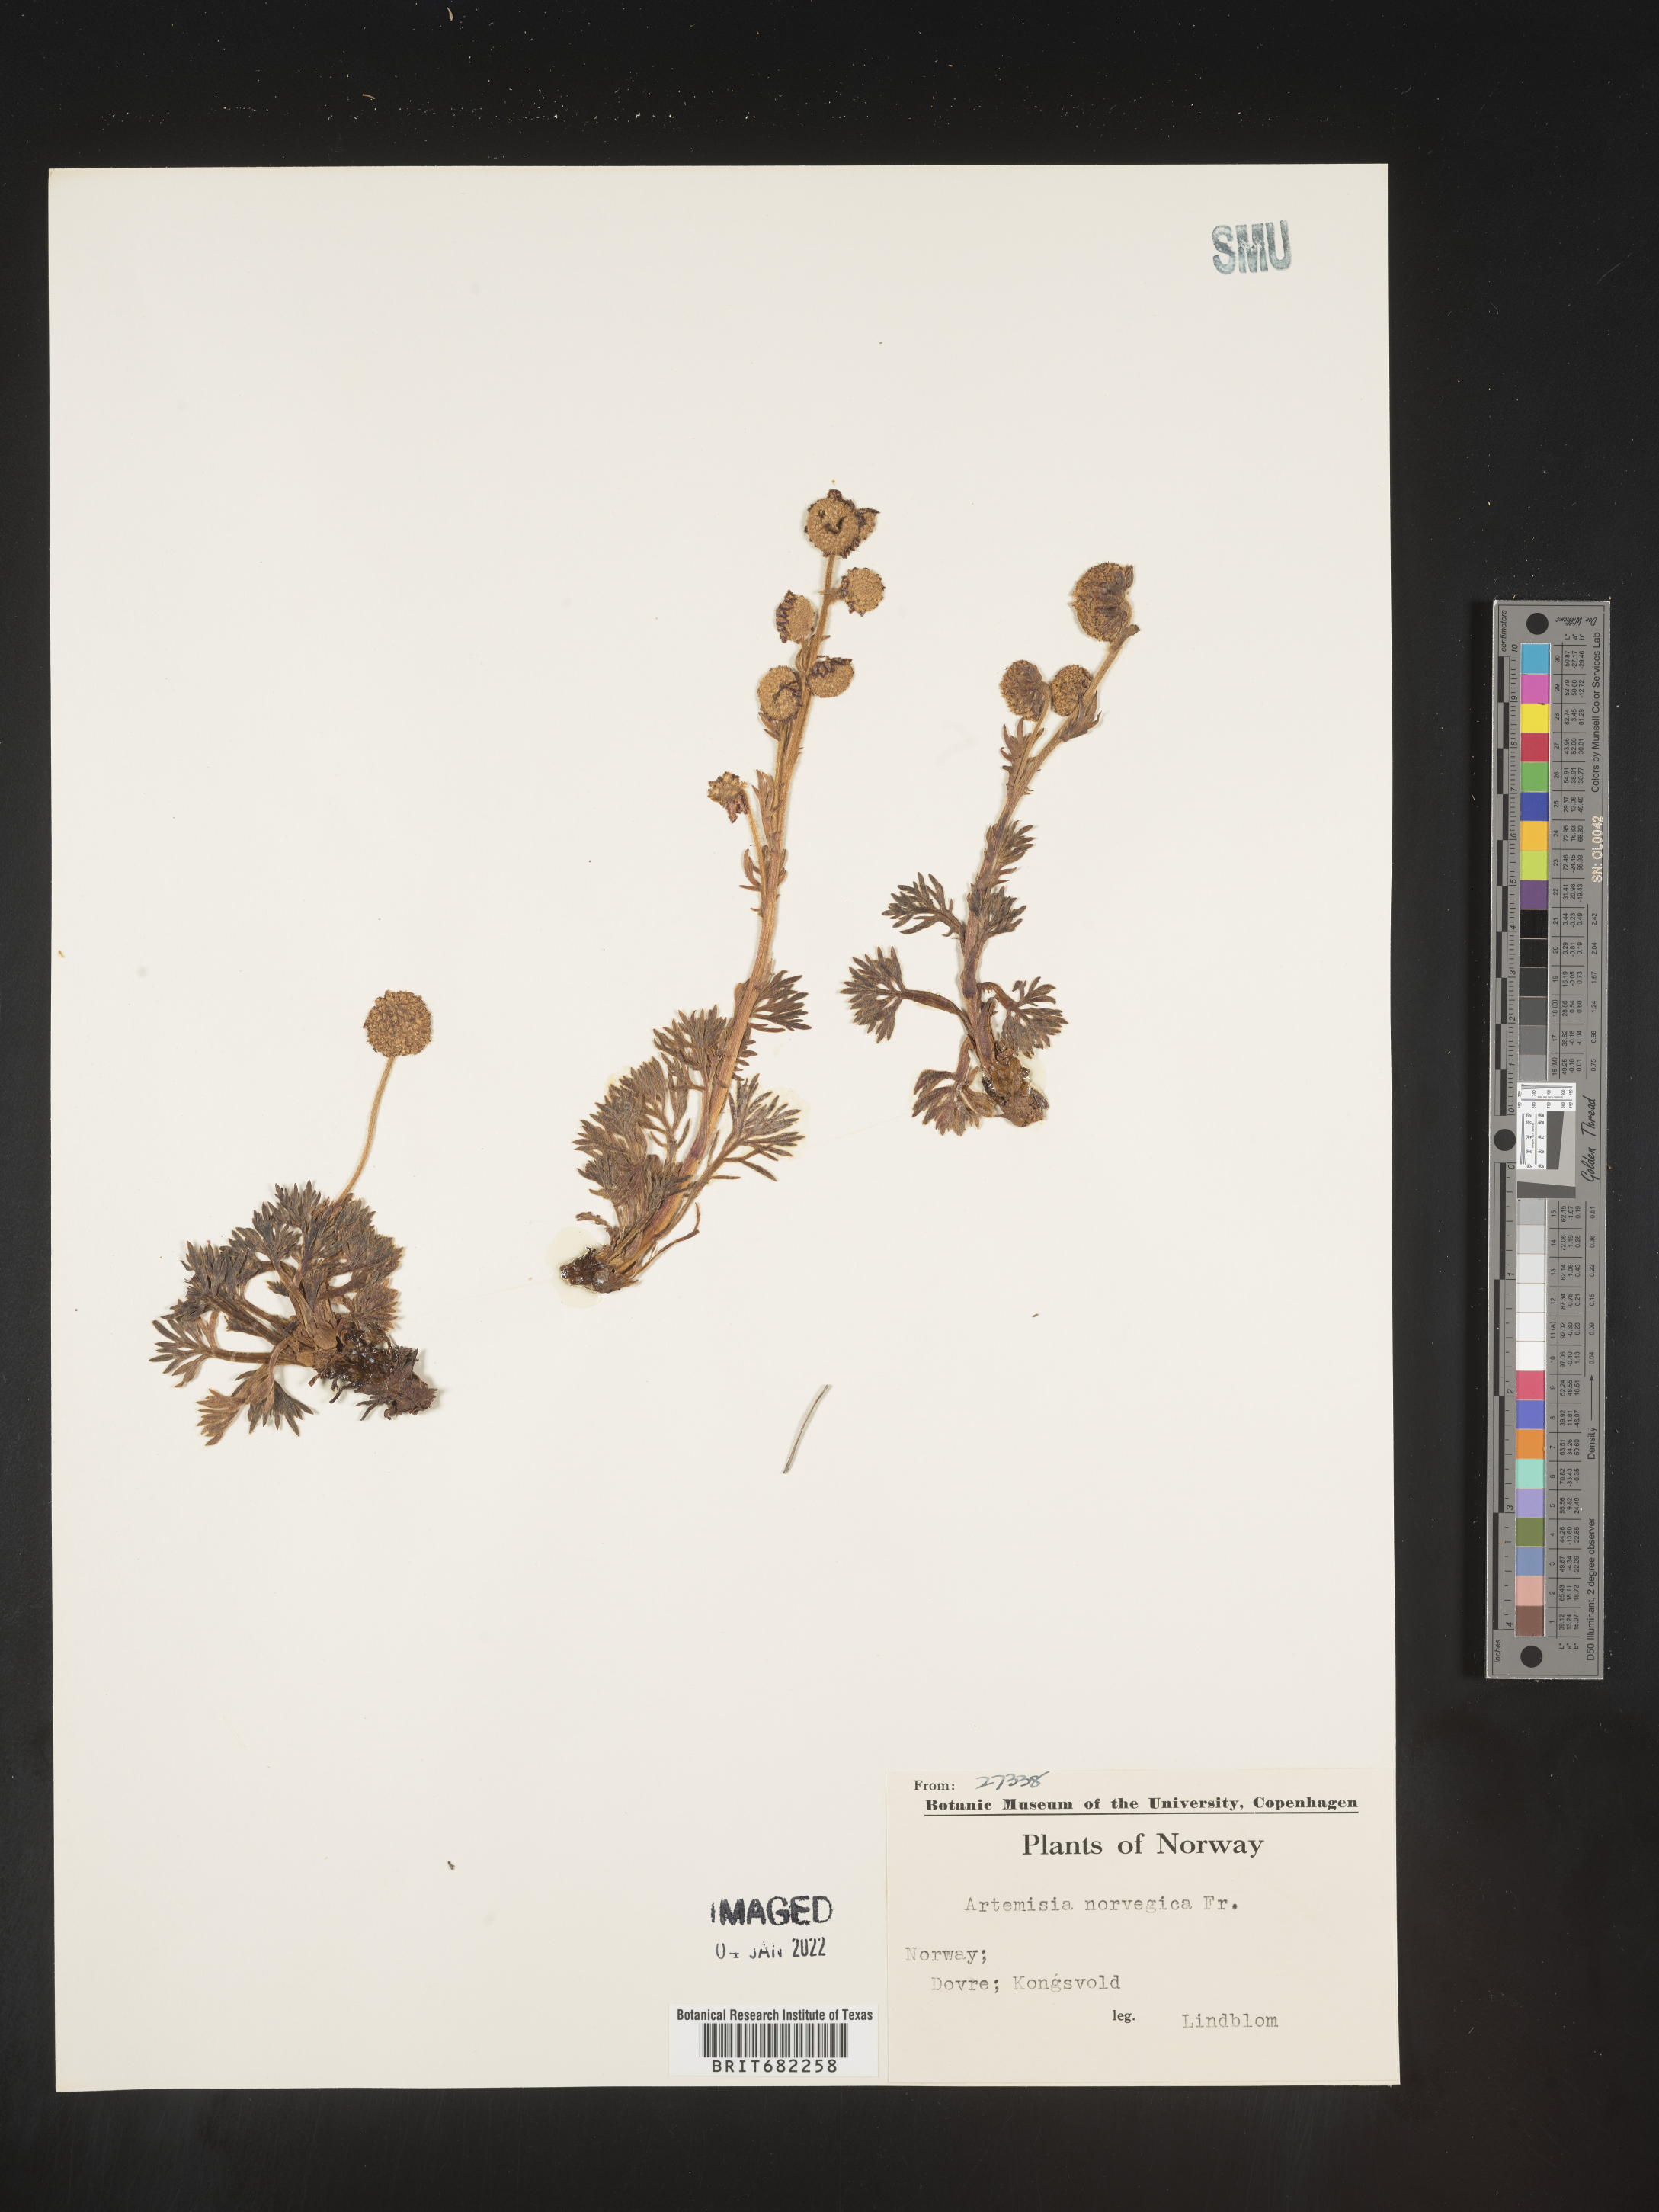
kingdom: Plantae
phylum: Tracheophyta
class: Magnoliopsida
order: Asterales
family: Asteraceae
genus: Artemisia
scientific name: Artemisia
